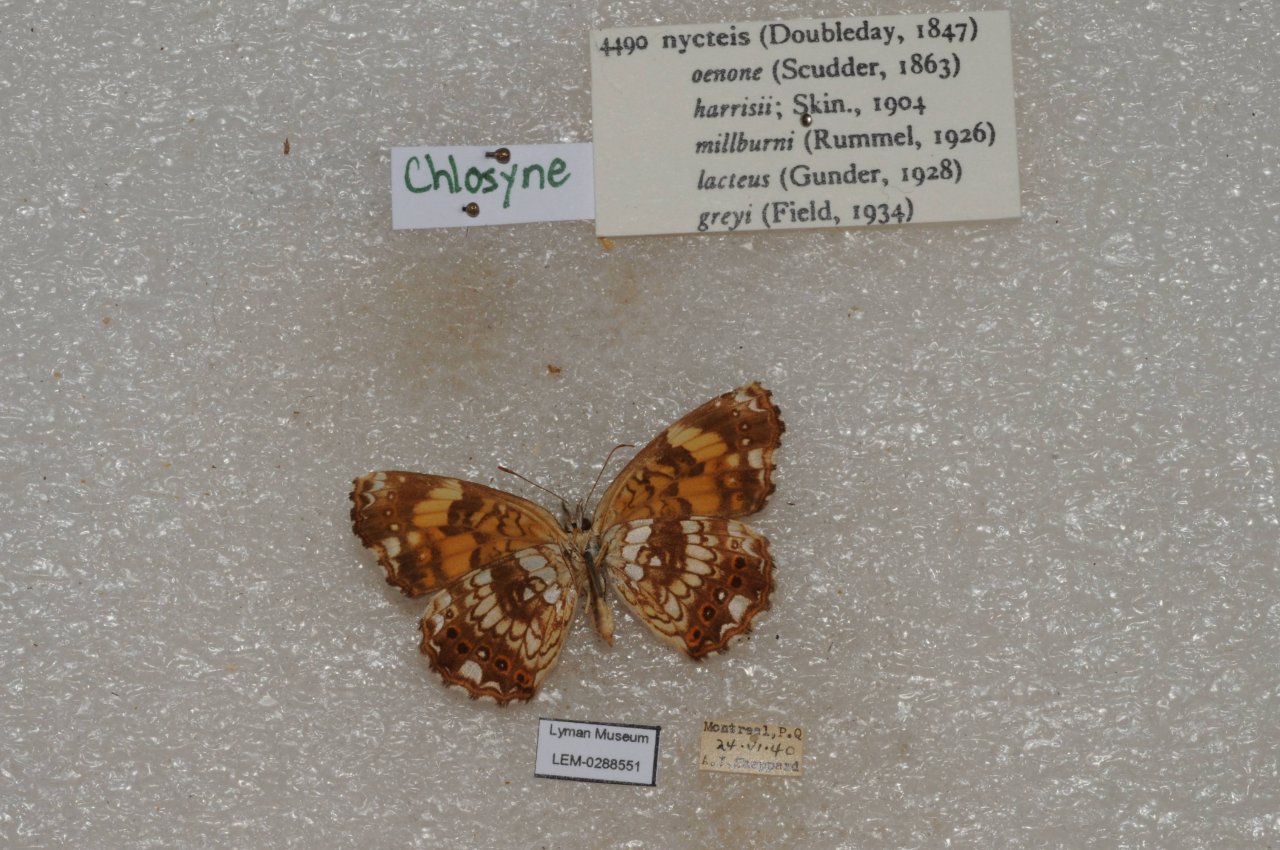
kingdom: Animalia
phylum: Arthropoda
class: Insecta
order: Lepidoptera
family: Nymphalidae
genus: Chlosyne
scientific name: Chlosyne nycteis
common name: Silvery Checkerspot
